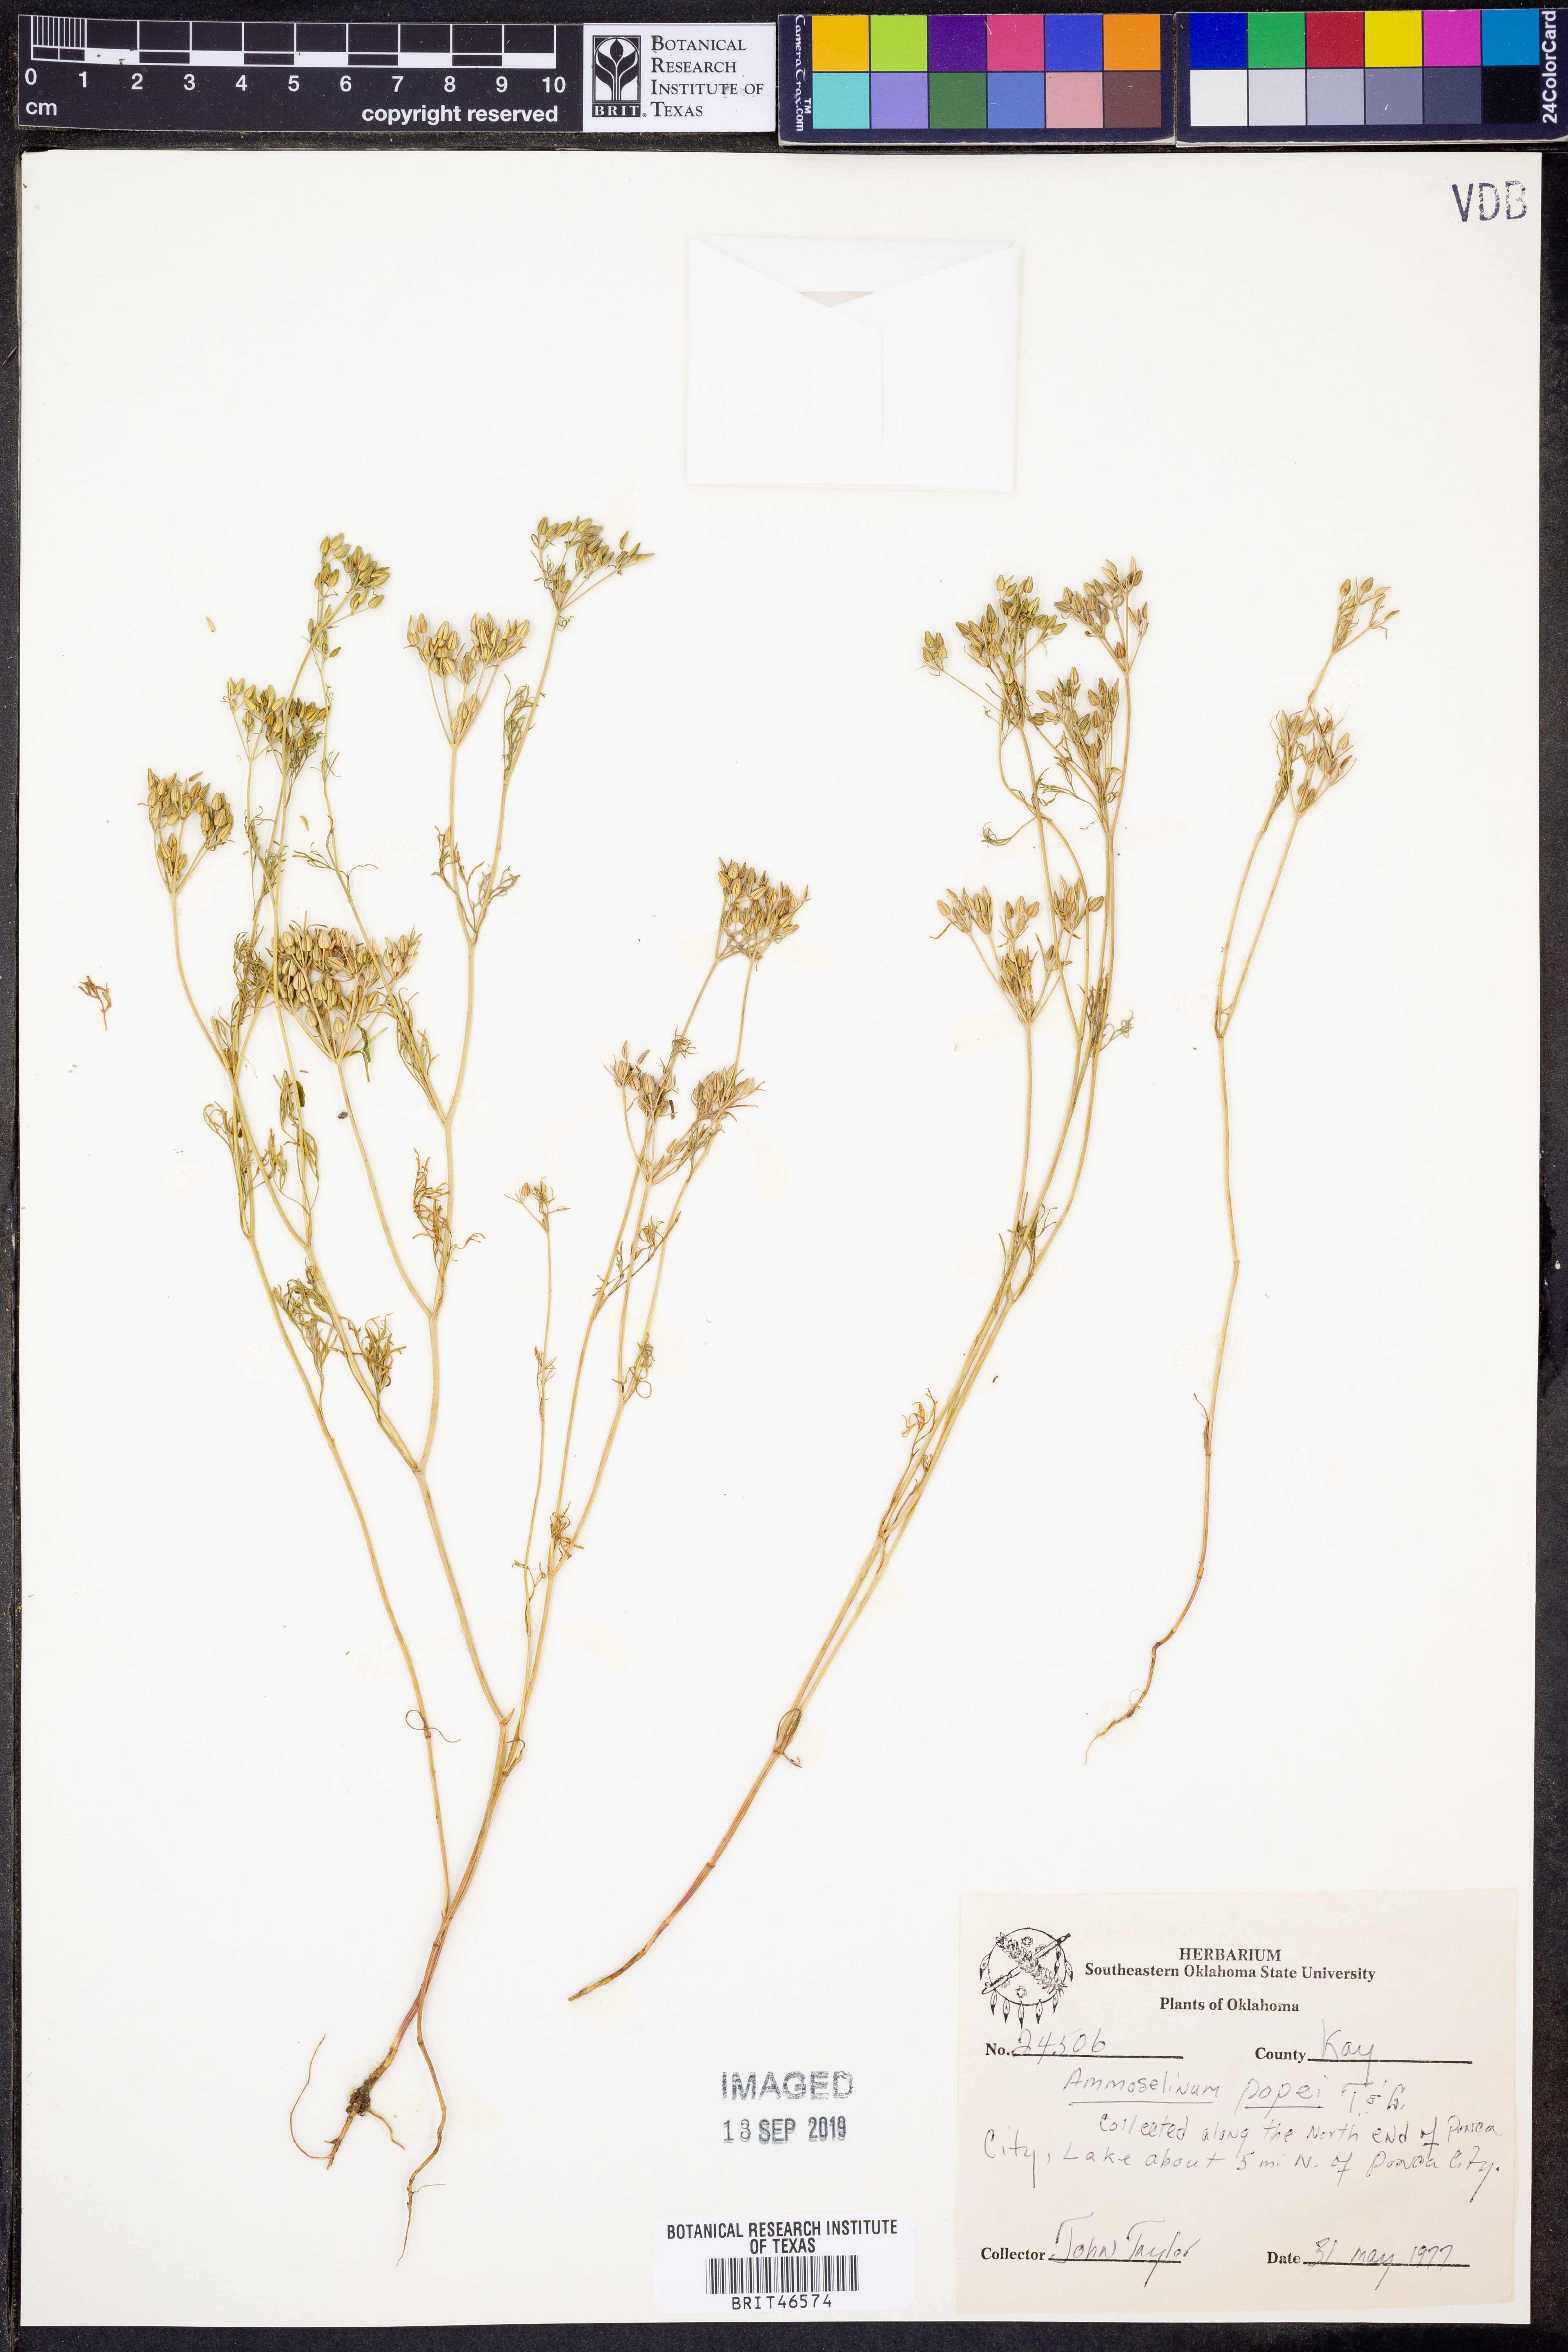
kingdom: Plantae
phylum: Tracheophyta
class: Magnoliopsida
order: Apiales
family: Apiaceae
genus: Ammoselinum
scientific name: Ammoselinum popei
